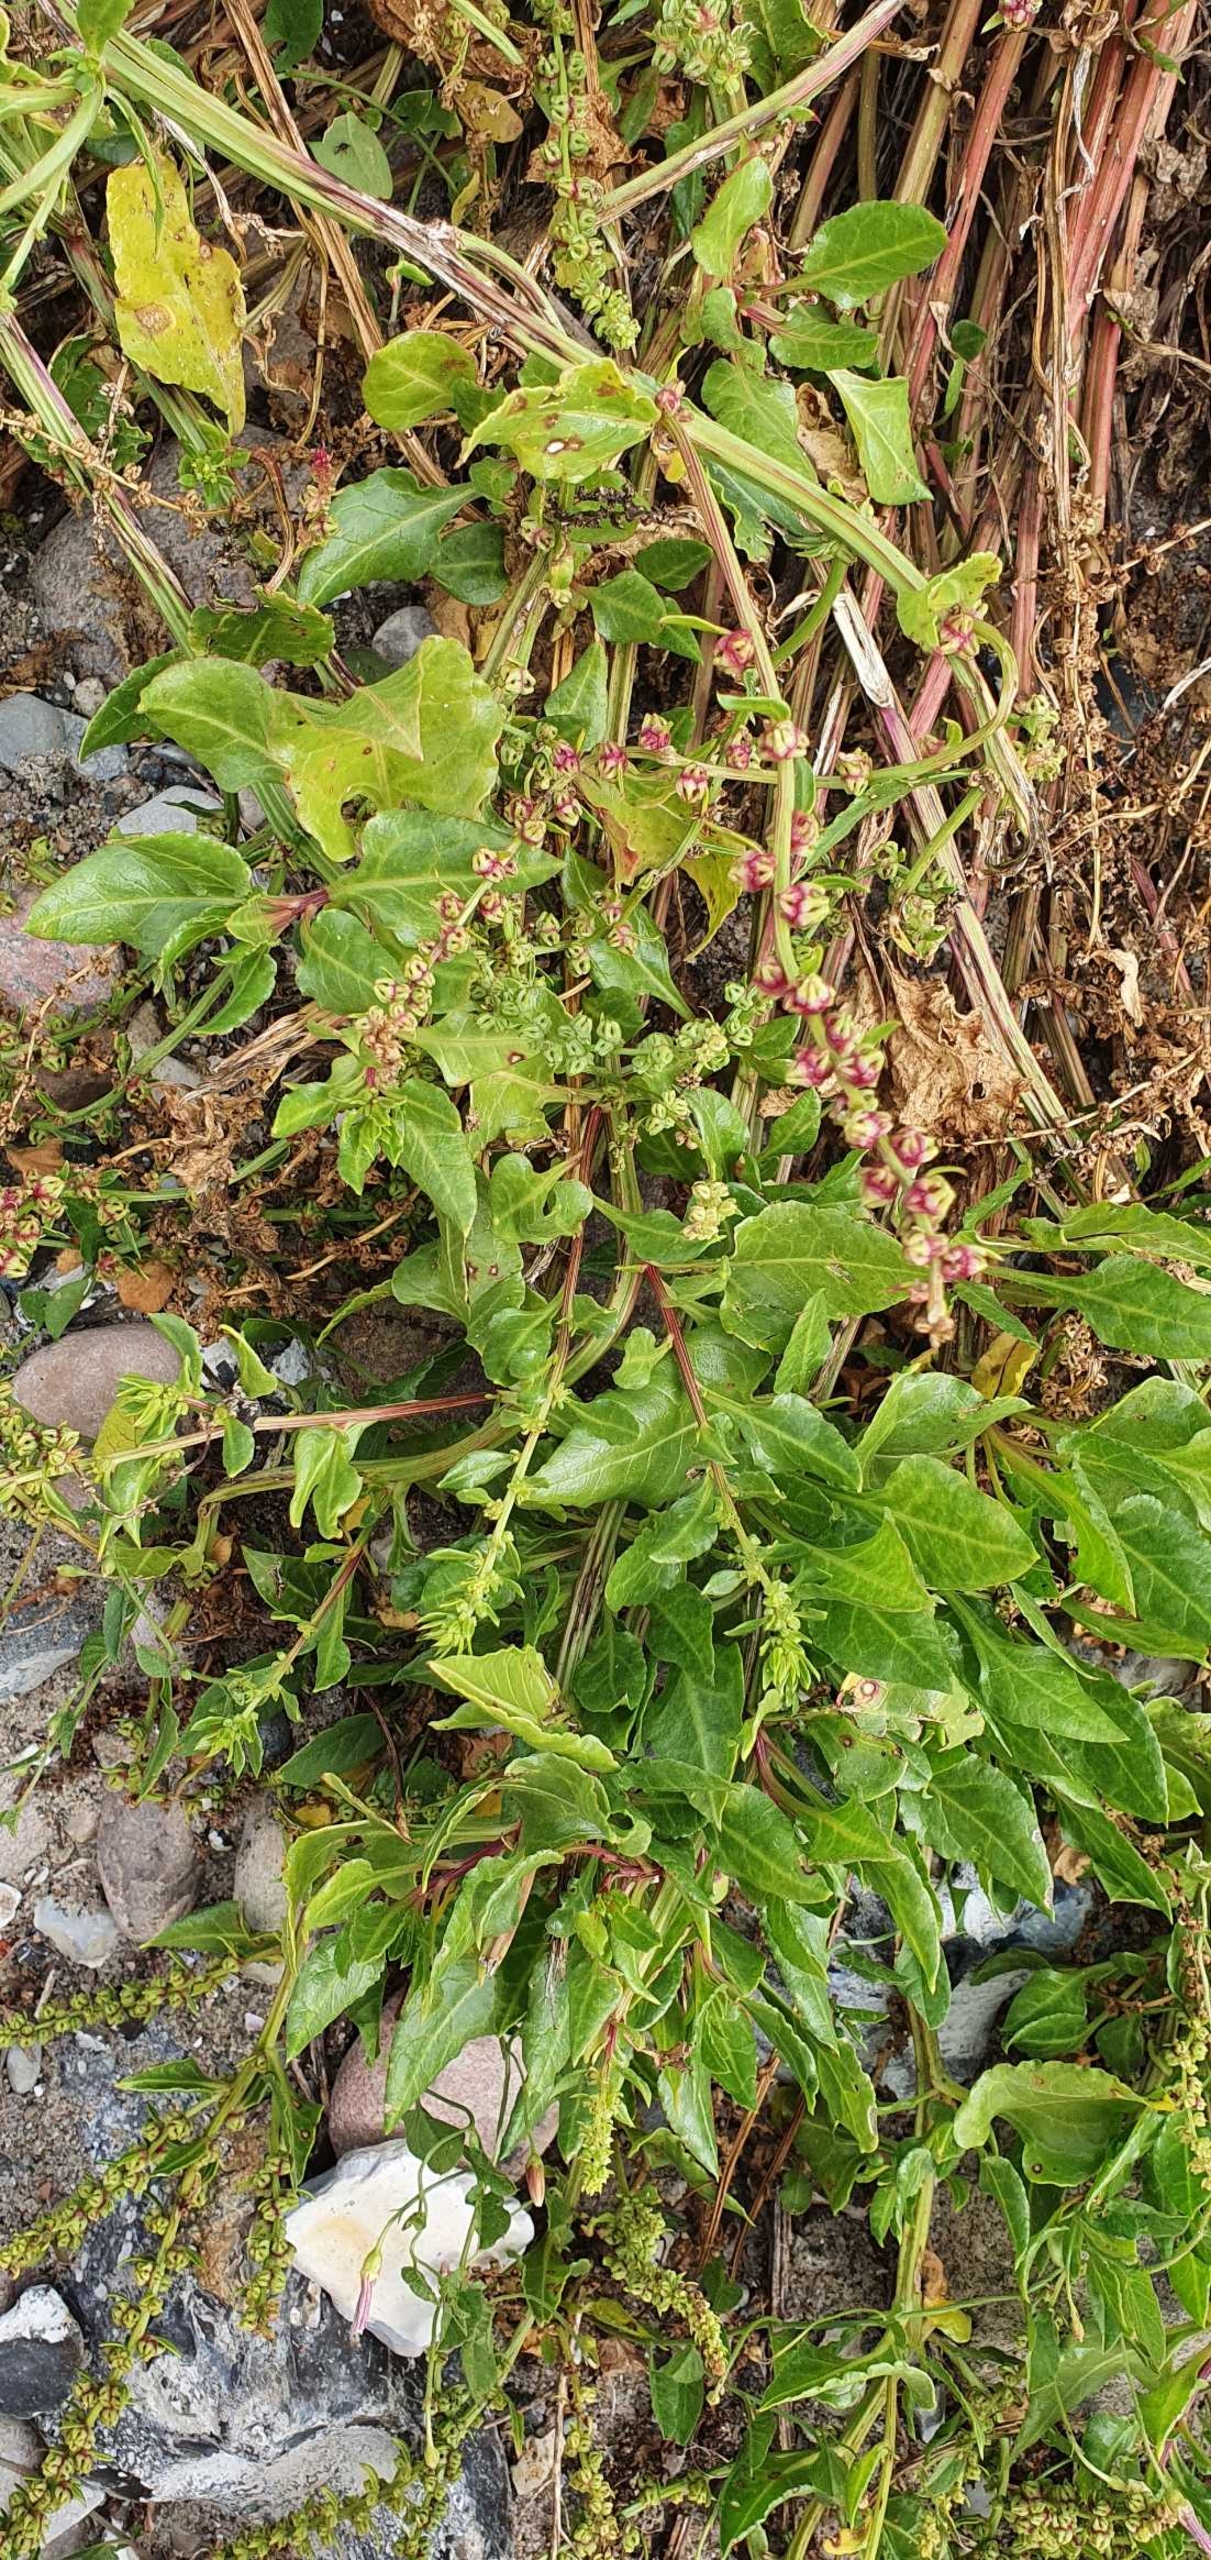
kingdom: Plantae
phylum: Tracheophyta
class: Magnoliopsida
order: Caryophyllales
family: Amaranthaceae
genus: Beta
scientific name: Beta vulgaris
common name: Bede
